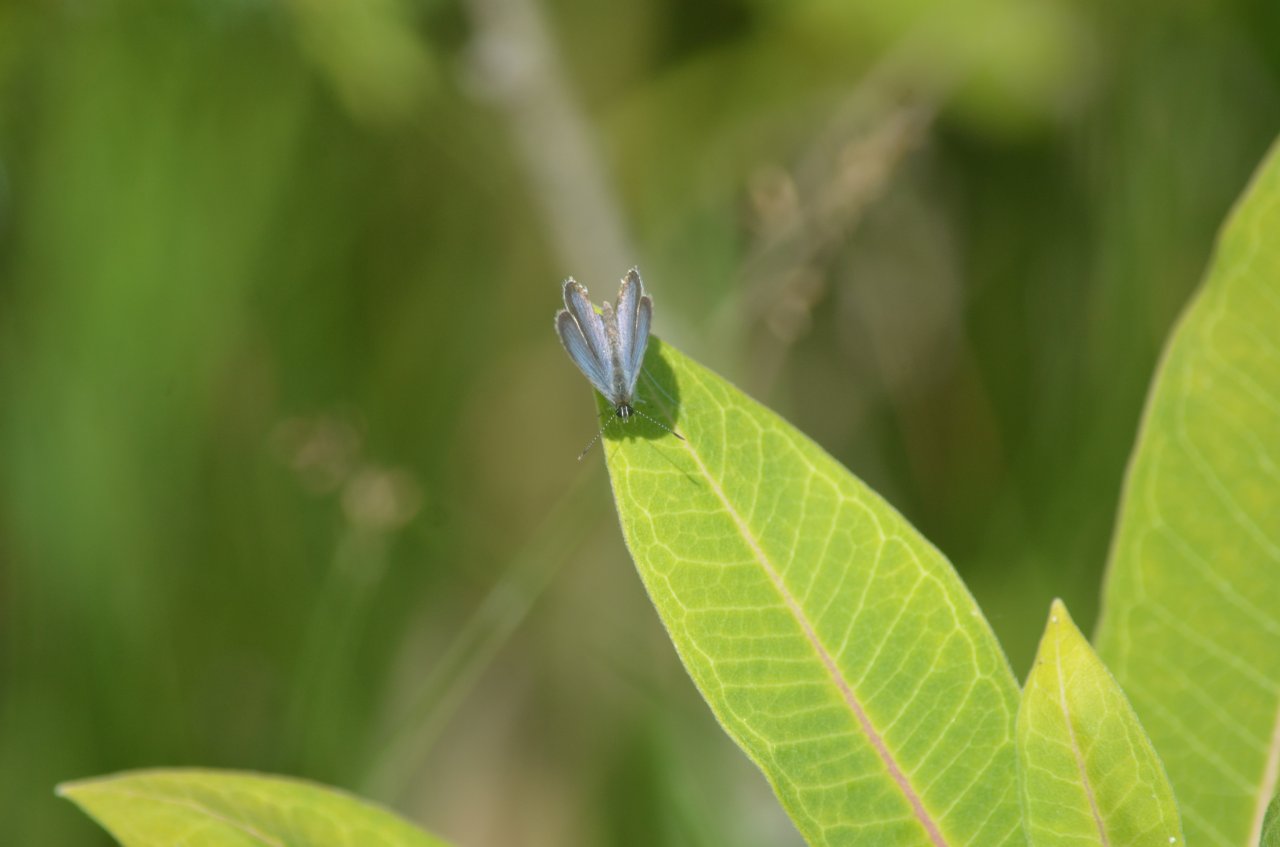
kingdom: Animalia
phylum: Arthropoda
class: Insecta
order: Lepidoptera
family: Lycaenidae
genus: Elkalyce
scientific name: Elkalyce comyntas
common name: Eastern Tailed-Blue
